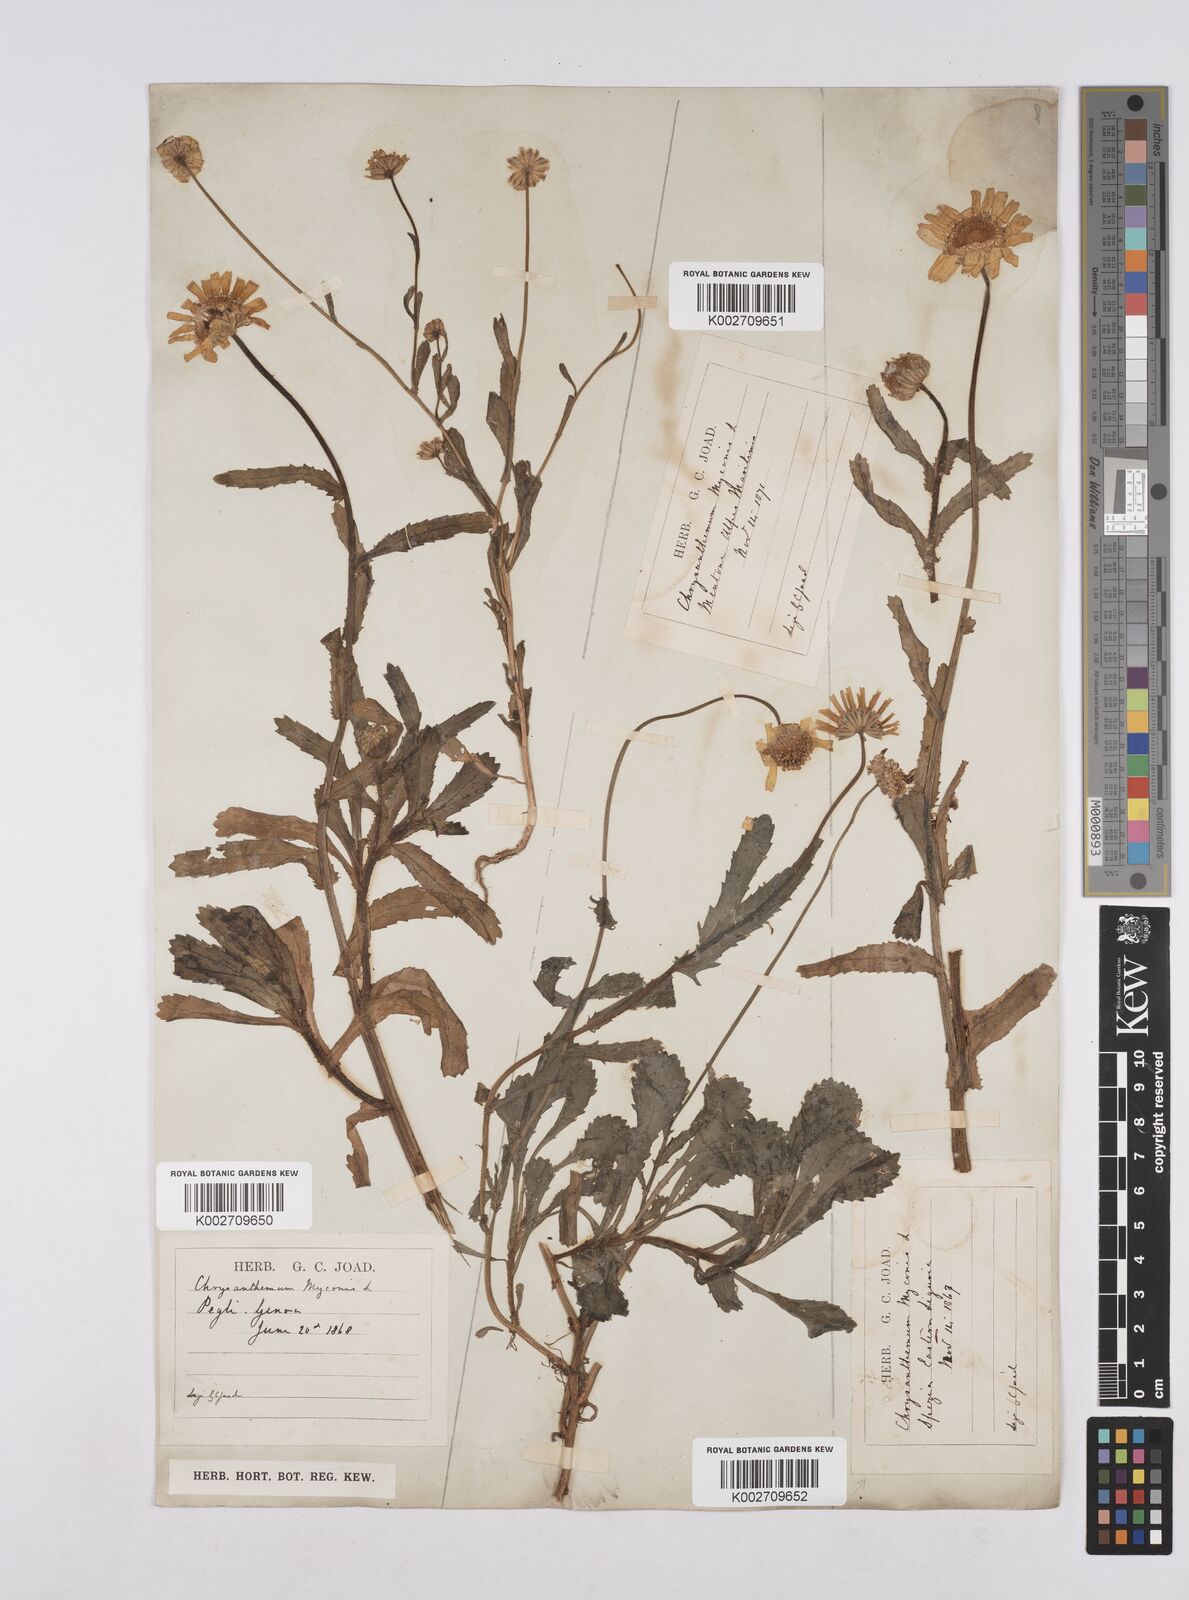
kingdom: Plantae
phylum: Tracheophyta
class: Magnoliopsida
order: Asterales
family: Asteraceae
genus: Coleostephus
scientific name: Coleostephus myconis
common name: Mediterranean marigold
